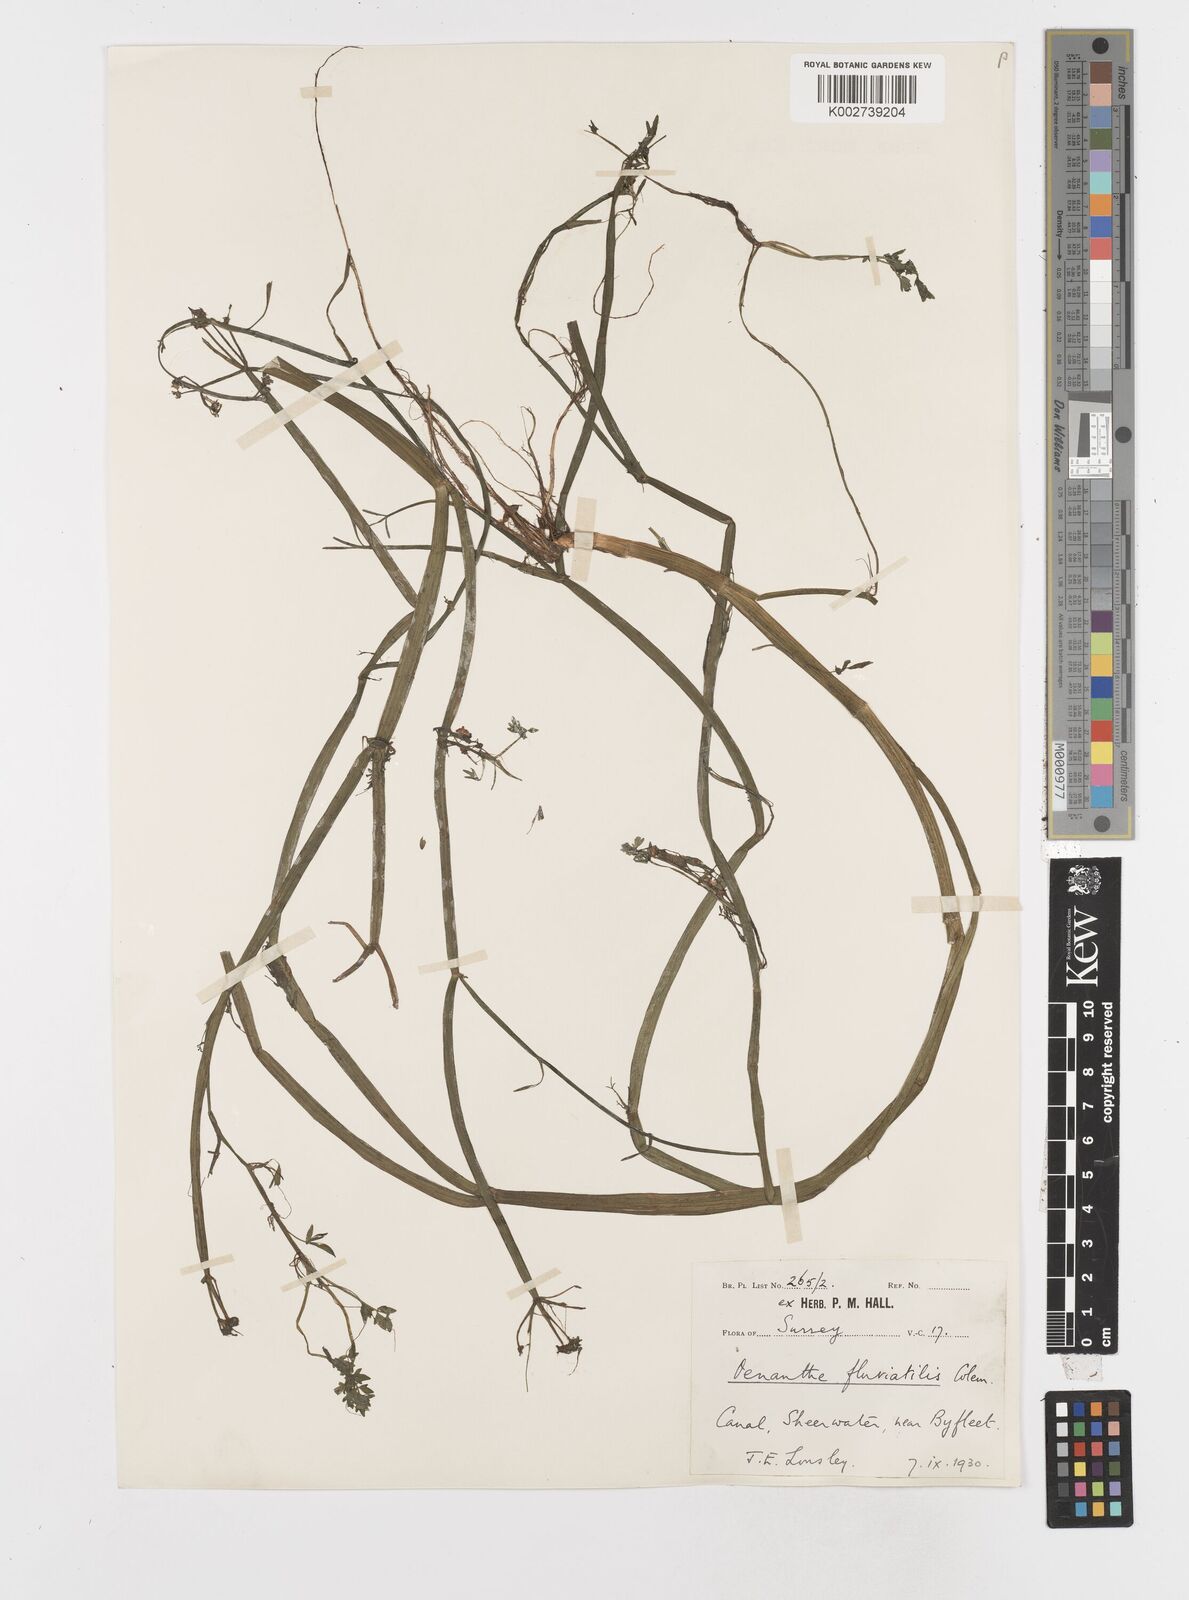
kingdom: Plantae
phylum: Tracheophyta
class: Magnoliopsida
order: Apiales
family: Apiaceae
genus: Oenanthe
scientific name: Oenanthe fluviatilis
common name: River water-dropwort
